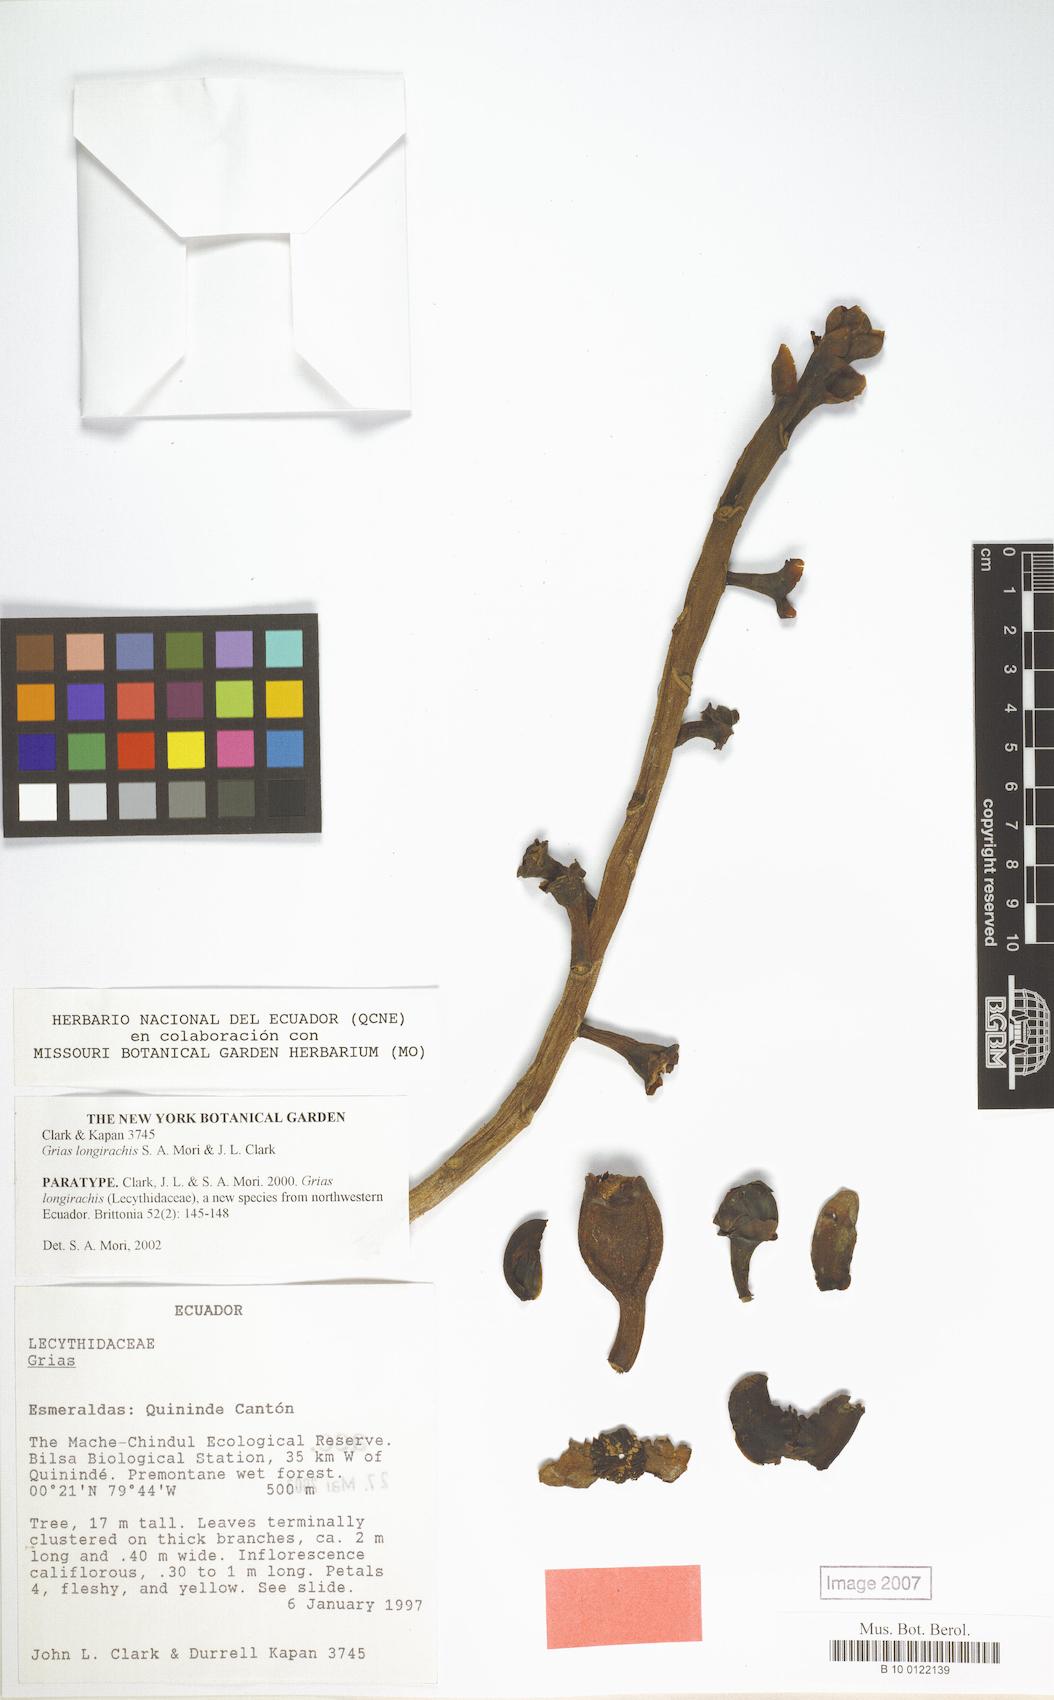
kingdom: Plantae
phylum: Tracheophyta
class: Magnoliopsida
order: Ericales
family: Lecythidaceae
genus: Grias
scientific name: Grias longirachis
